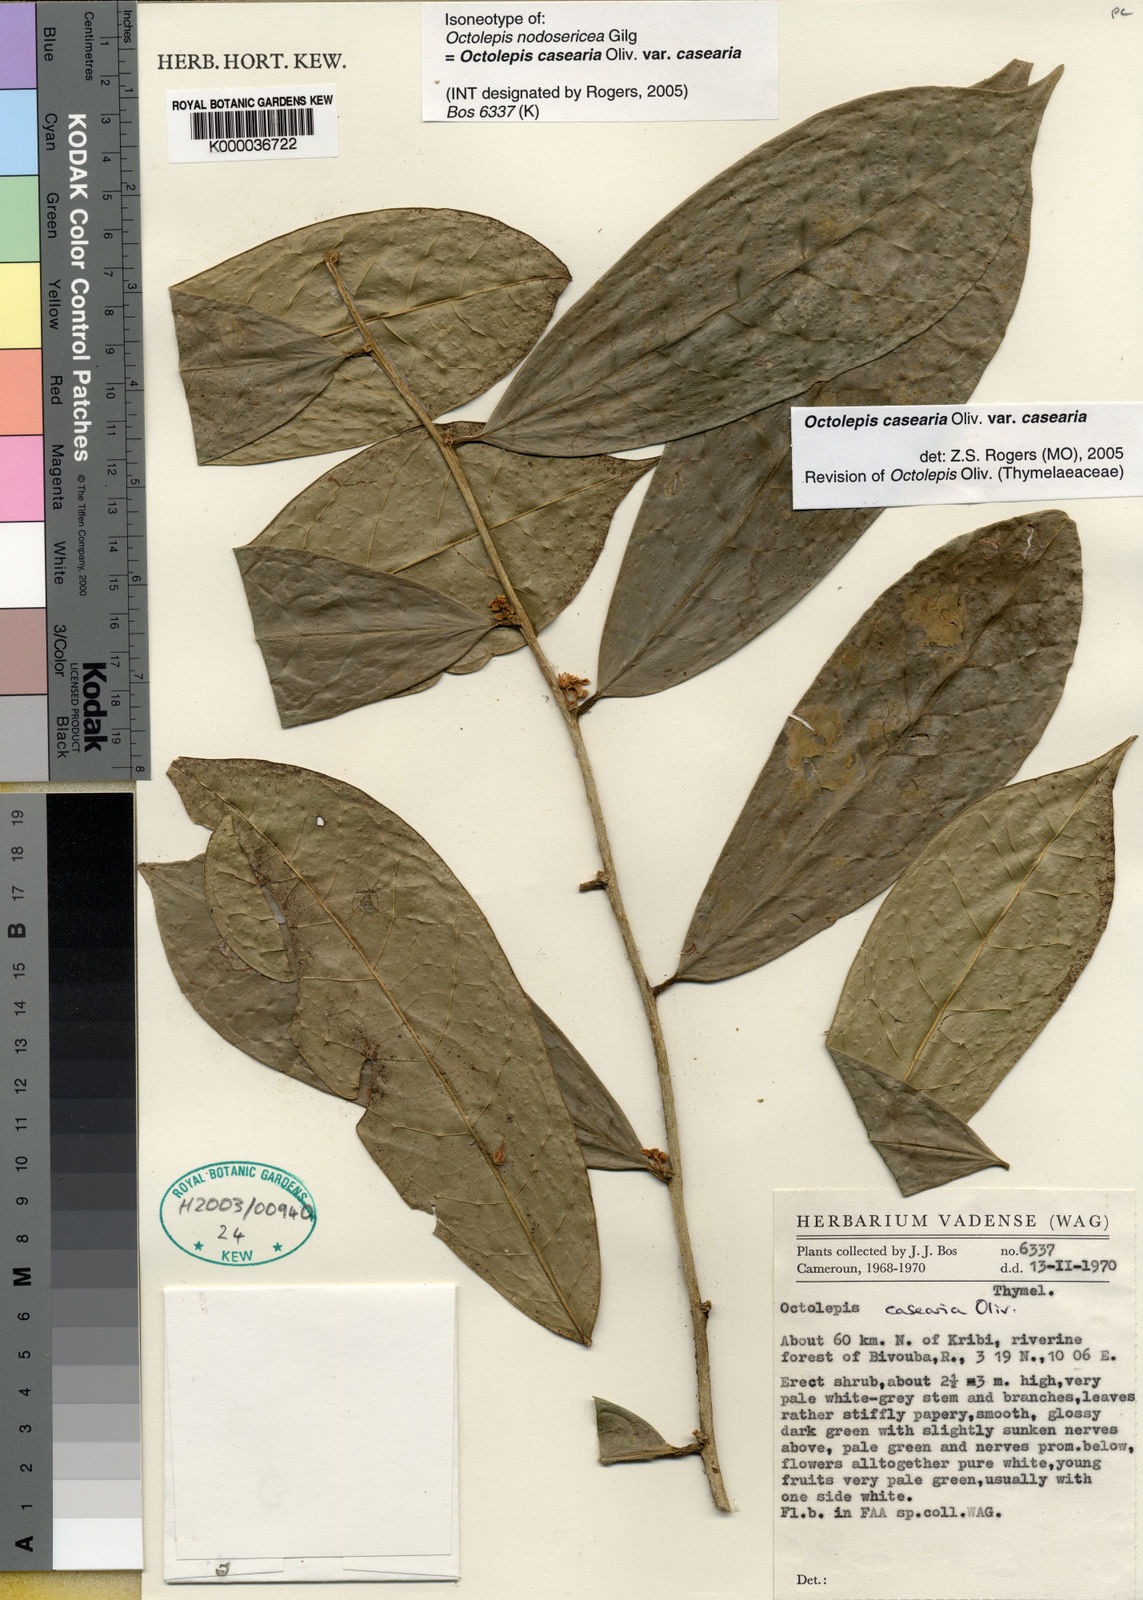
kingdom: Plantae
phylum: Tracheophyta
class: Magnoliopsida
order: Malvales
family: Thymelaeaceae
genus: Octolepis
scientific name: Octolepis casearia
